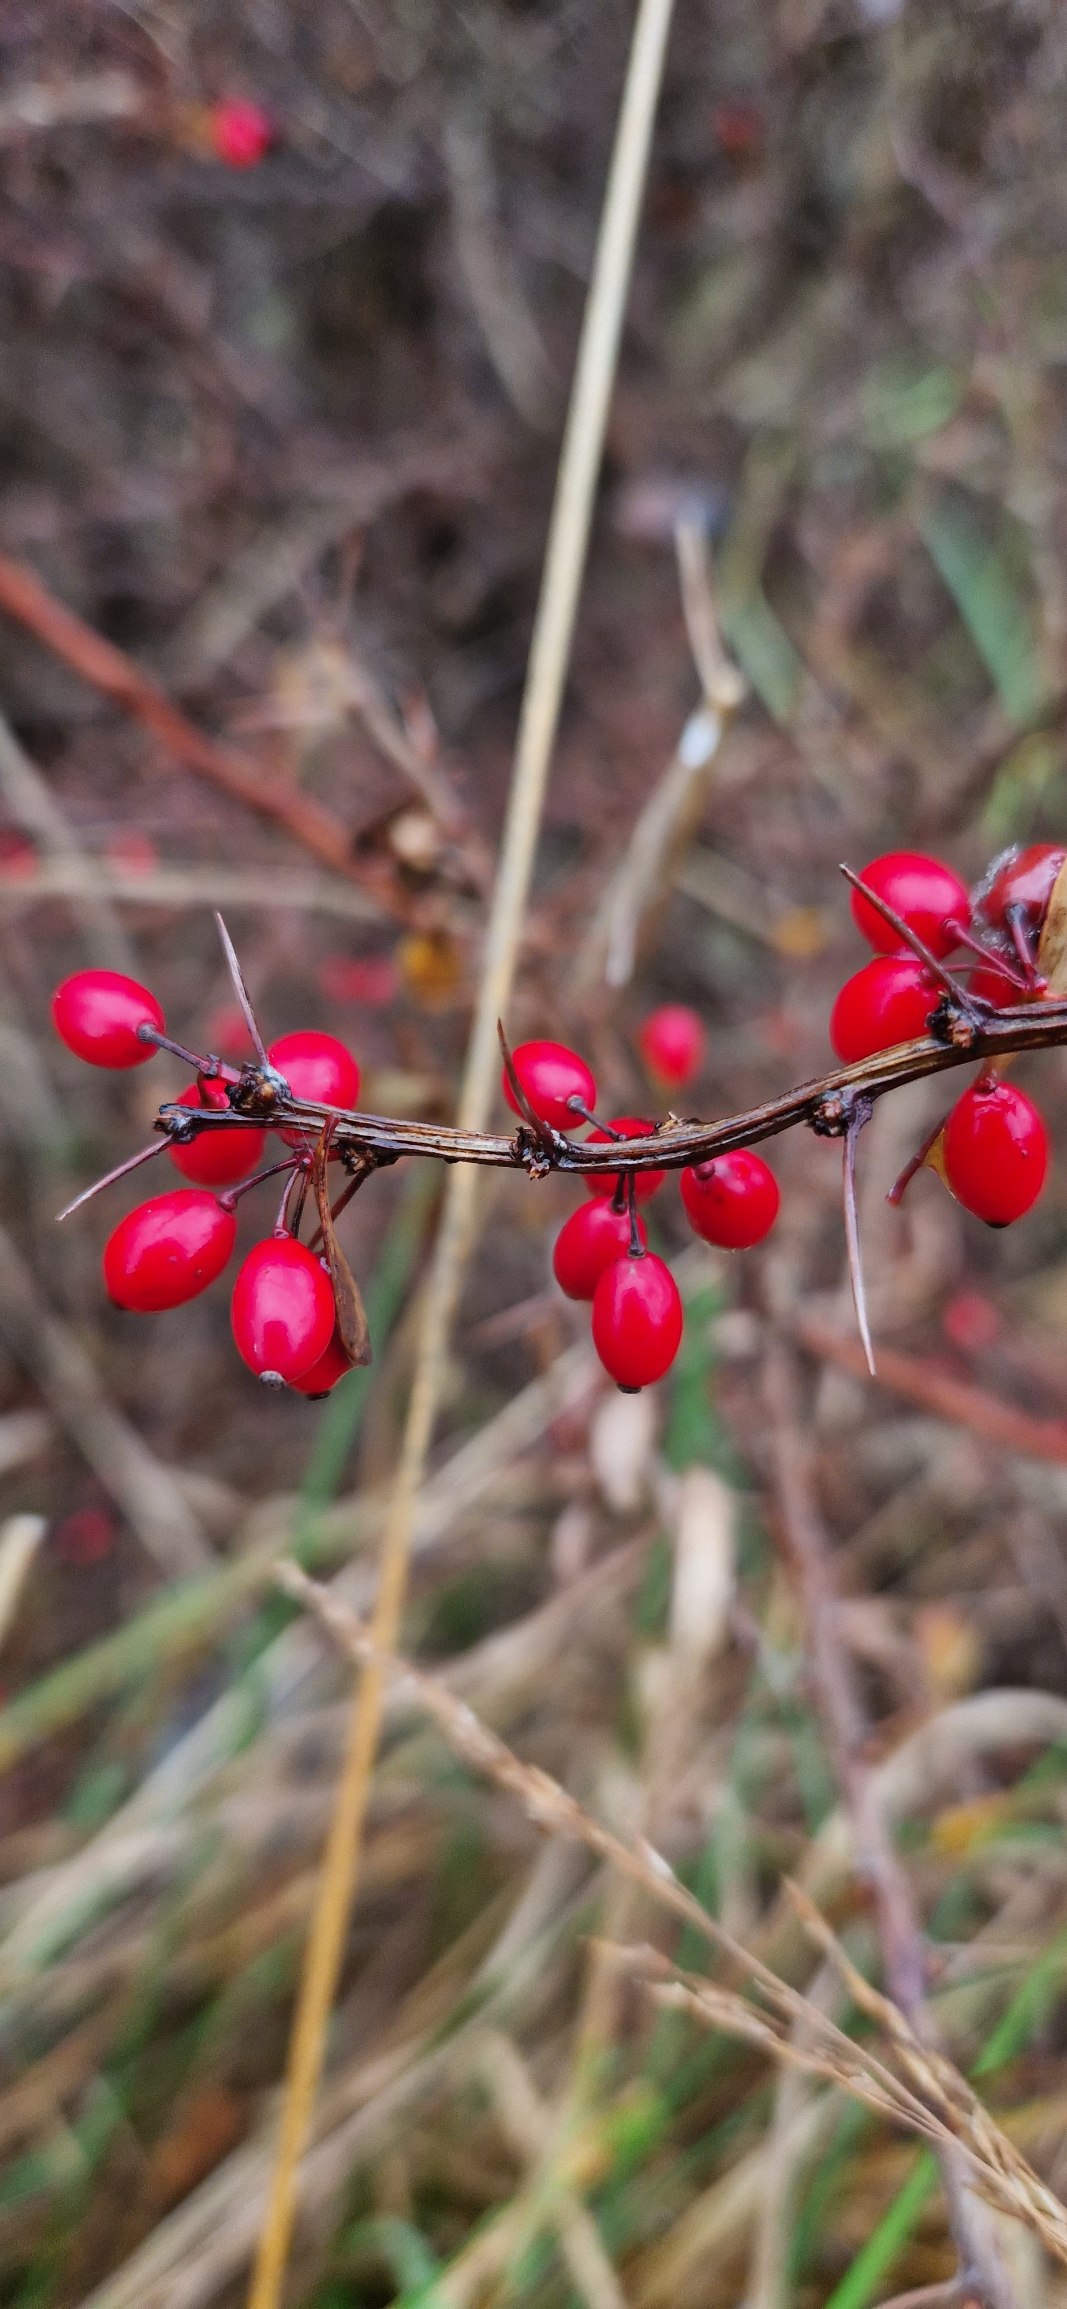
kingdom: Plantae
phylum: Tracheophyta
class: Magnoliopsida
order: Ranunculales
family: Berberidaceae
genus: Berberis
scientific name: Berberis thunbergii
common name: Hæk-berberis
